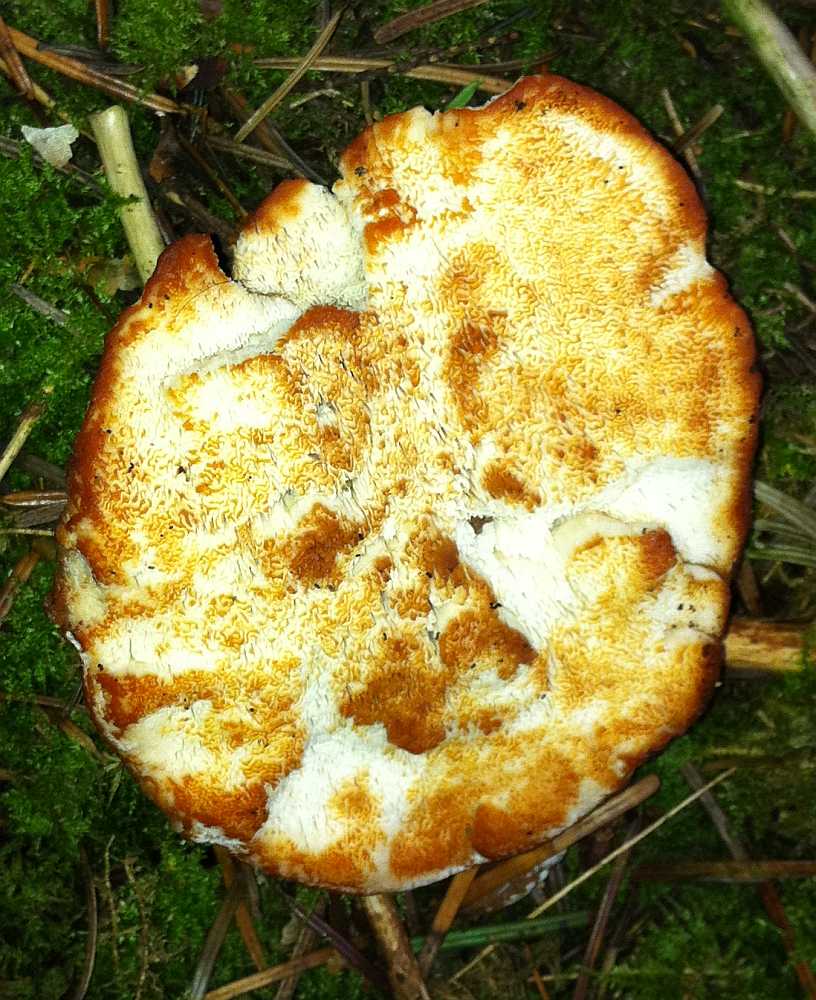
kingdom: Fungi
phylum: Basidiomycota
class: Agaricomycetes
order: Polyporales
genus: Fuscopostia
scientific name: Fuscopostia fragilis
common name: brunende kødporesvamp
